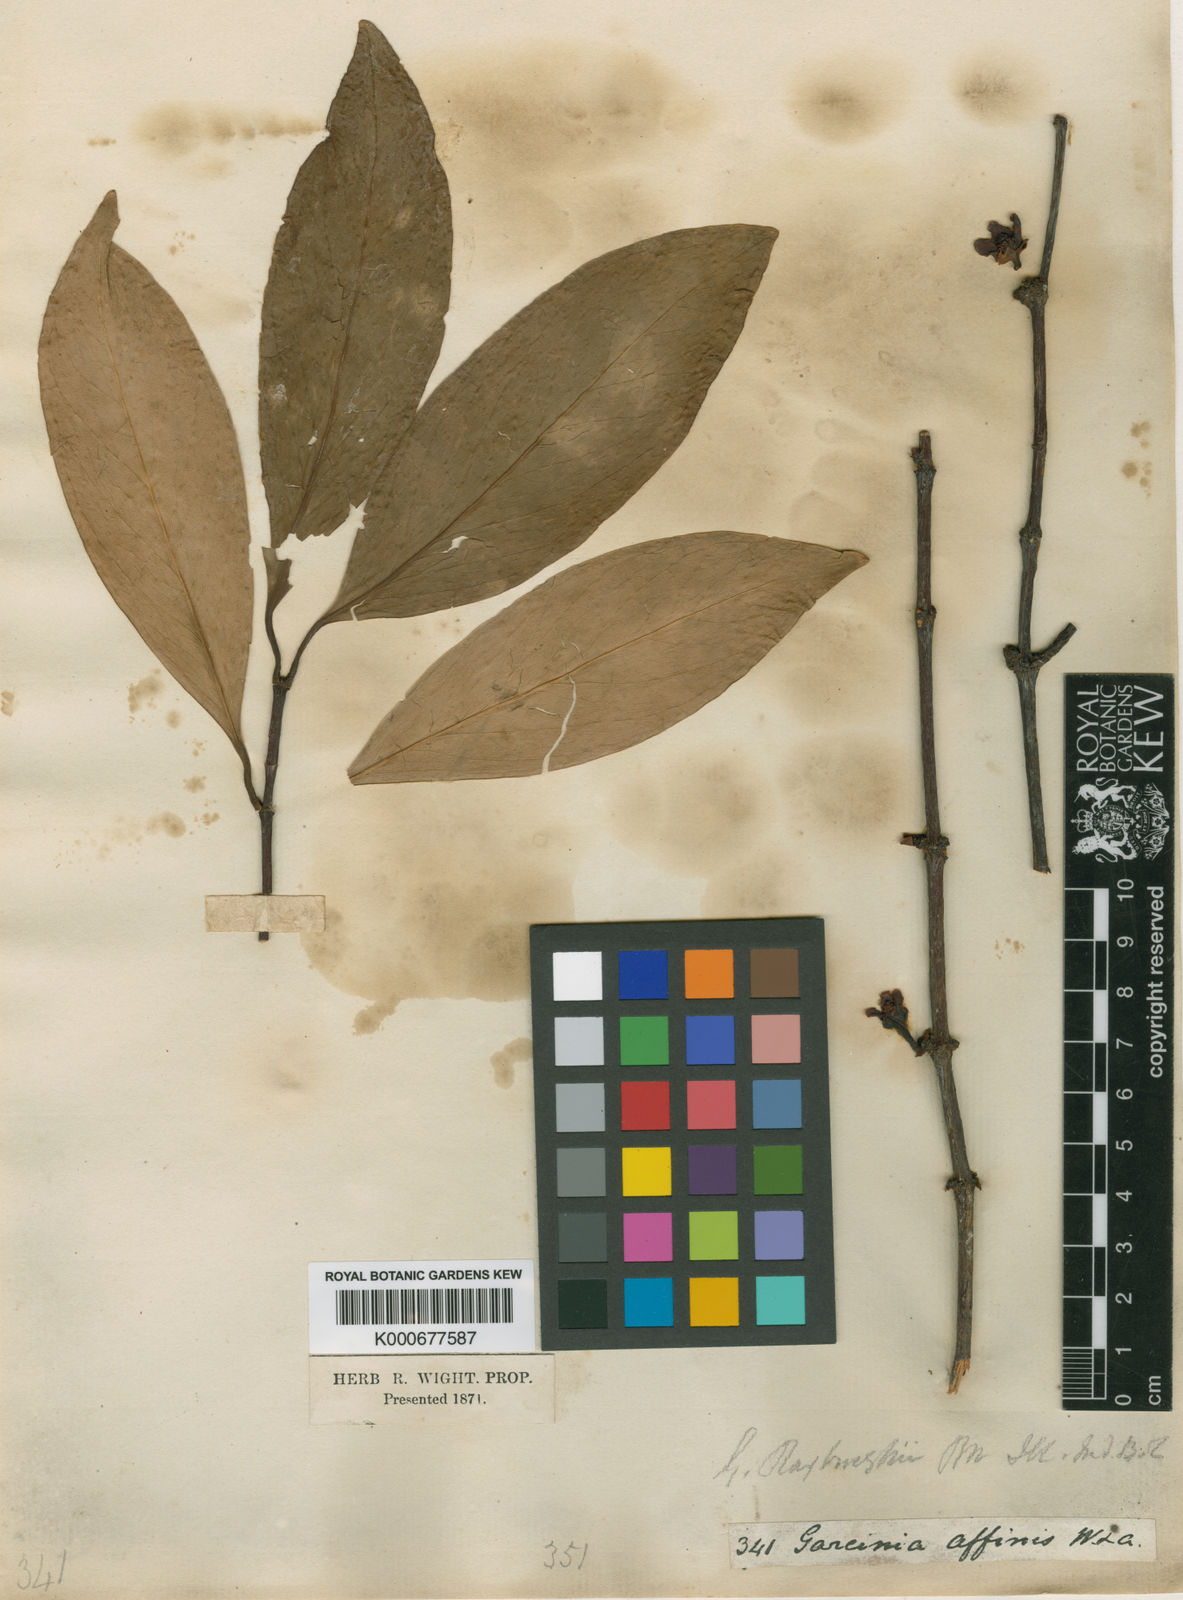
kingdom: Plantae
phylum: Tracheophyta
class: Magnoliopsida
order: Malpighiales
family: Clusiaceae
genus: Garcinia
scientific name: Garcinia
